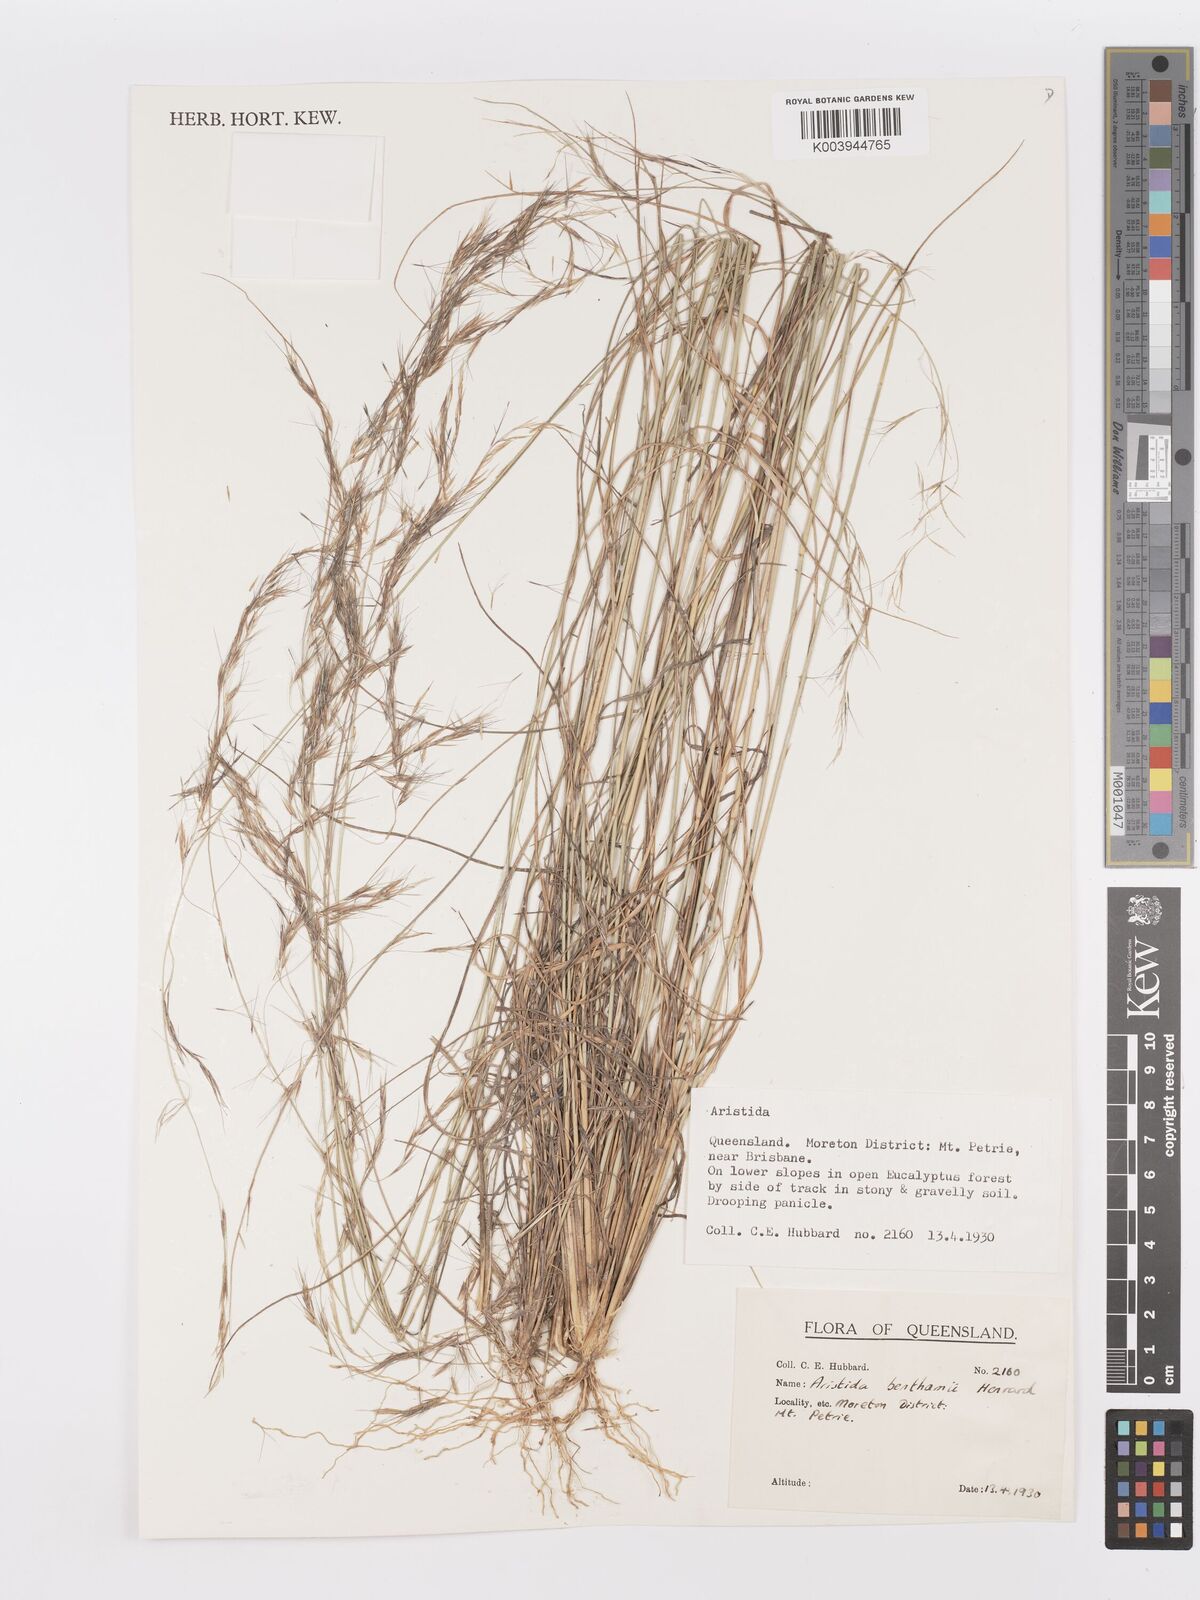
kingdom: Plantae
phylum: Tracheophyta
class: Liliopsida
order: Poales
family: Poaceae
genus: Aristida
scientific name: Aristida benthamii
